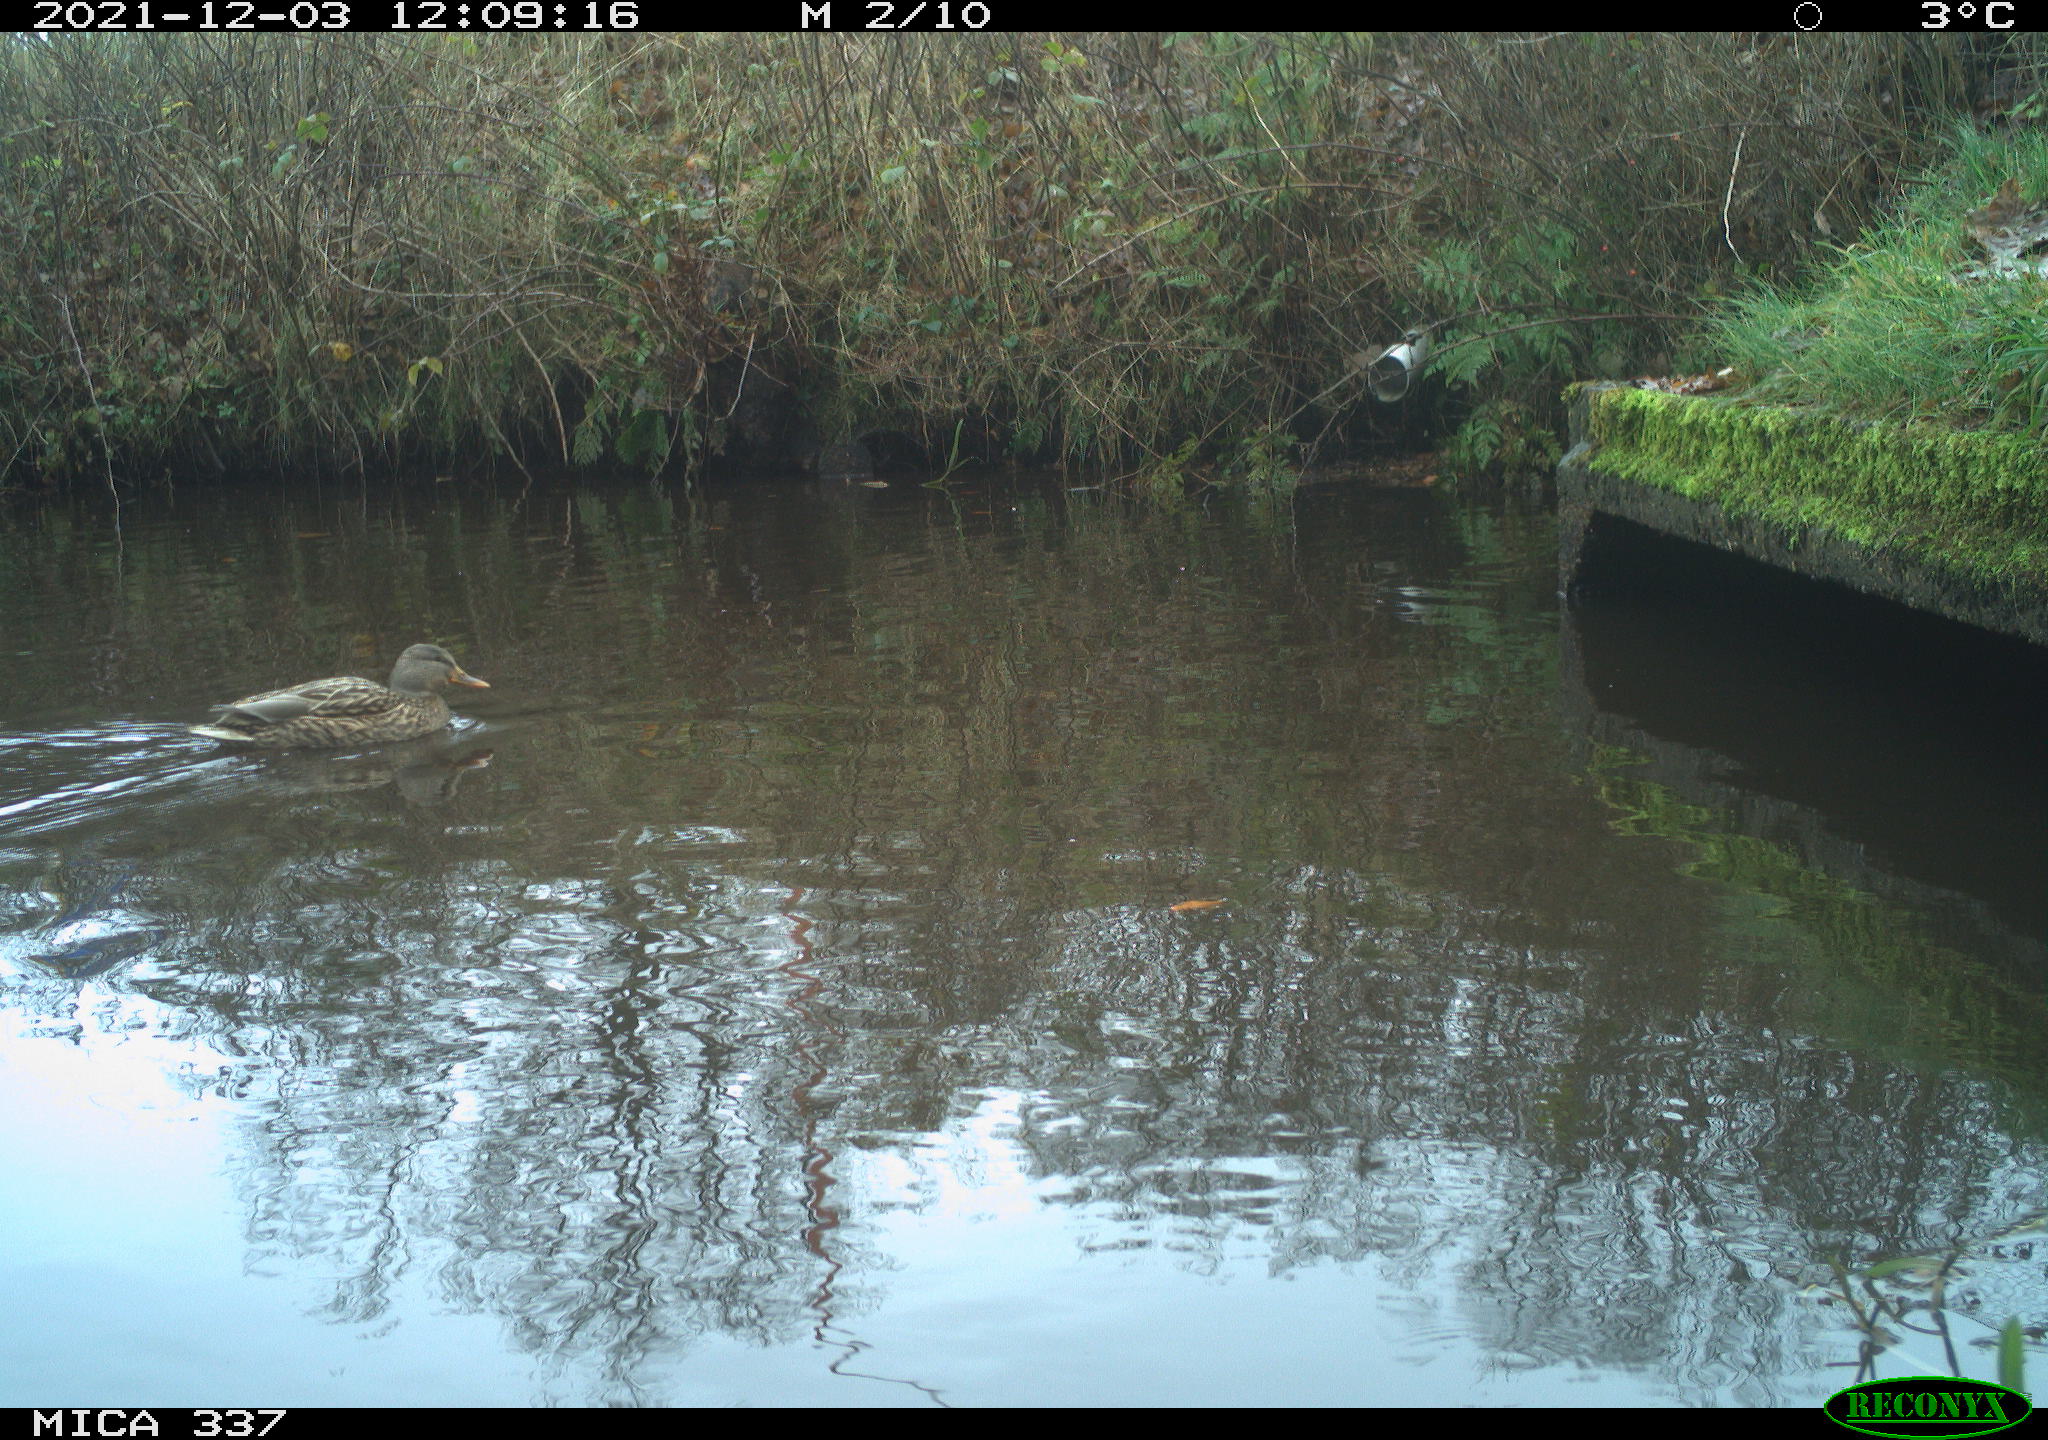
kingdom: Animalia
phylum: Chordata
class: Aves
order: Anseriformes
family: Anatidae
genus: Anas
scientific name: Anas platyrhynchos
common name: Mallard
